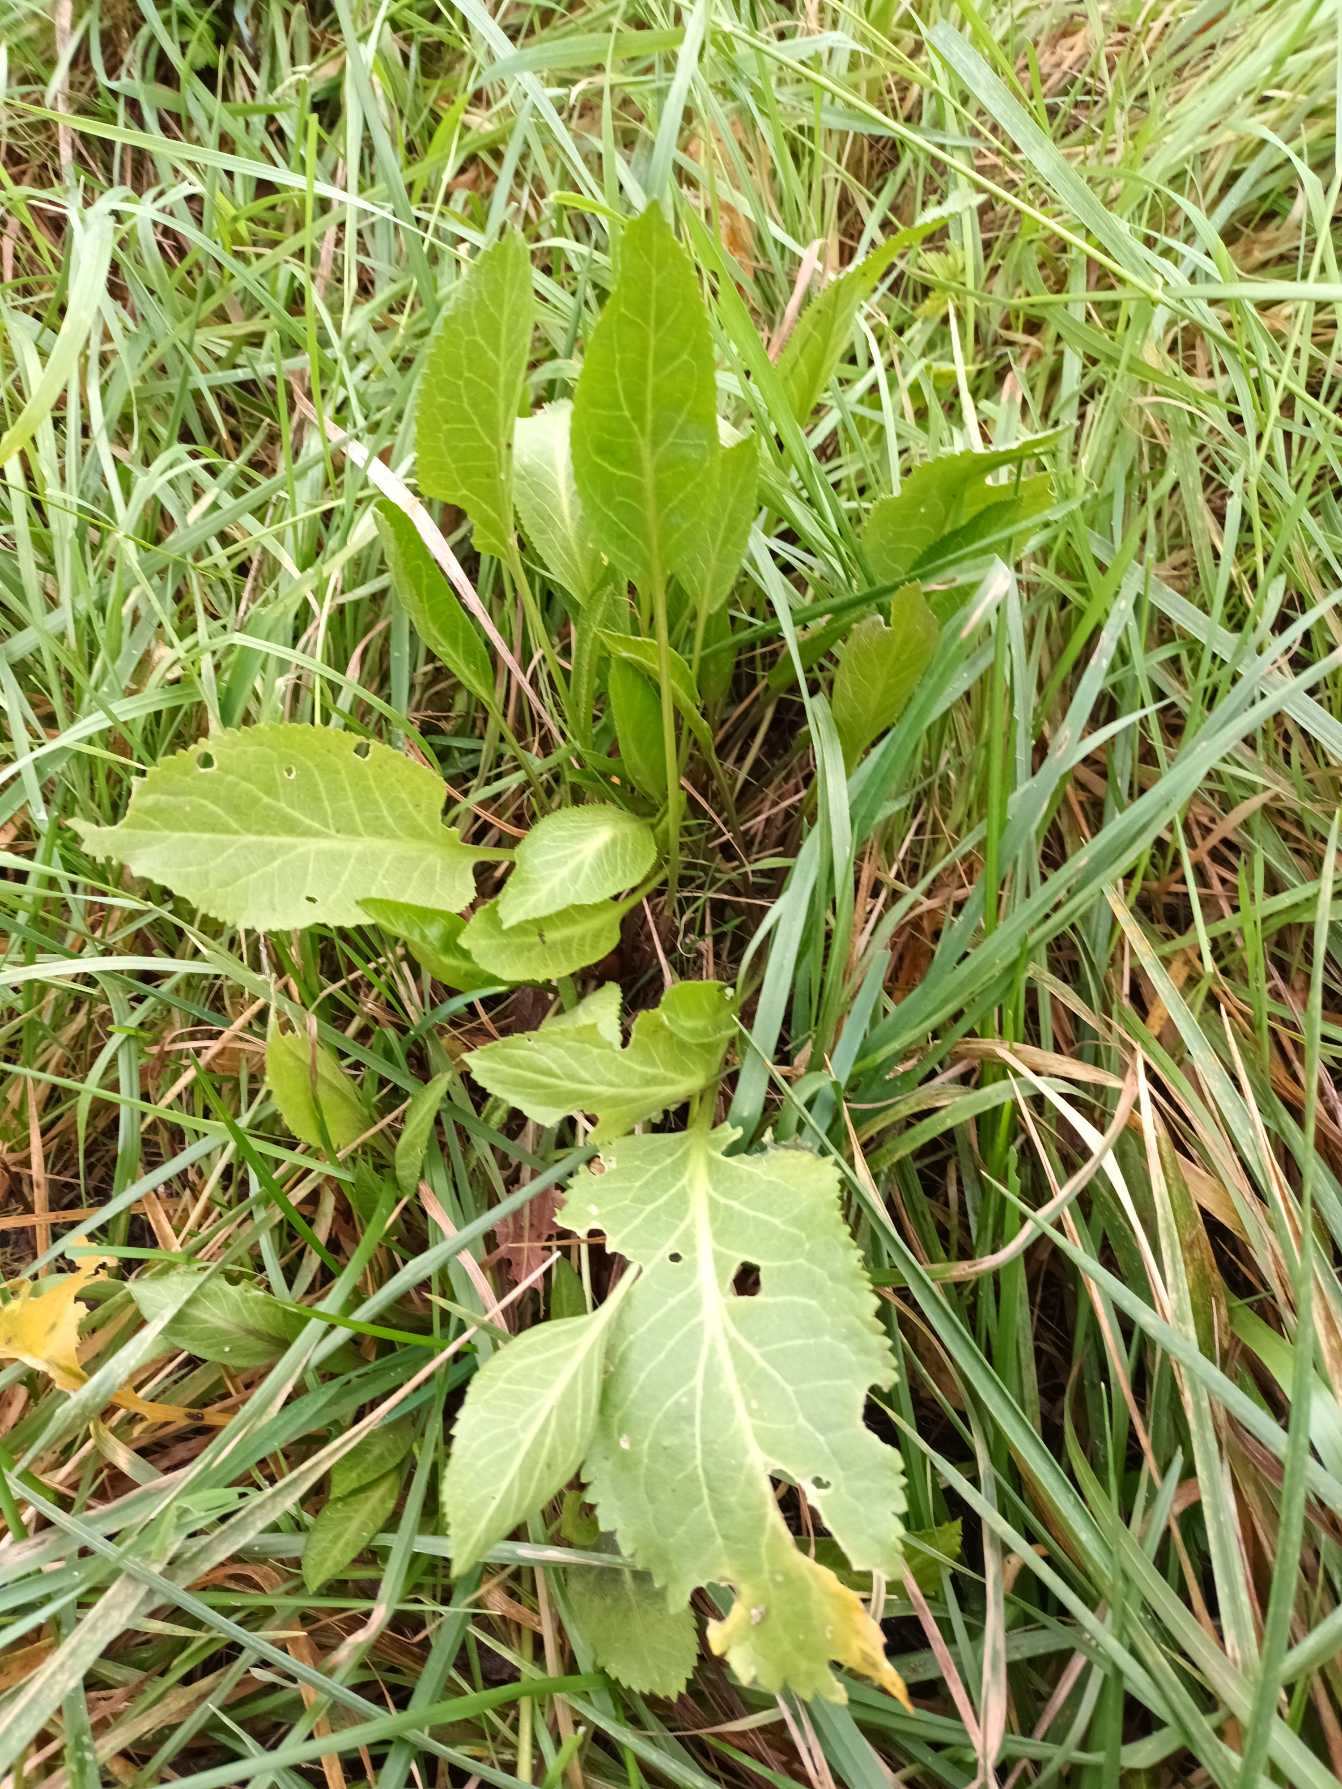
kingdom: Plantae
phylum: Tracheophyta
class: Magnoliopsida
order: Brassicales
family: Brassicaceae
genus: Lepidium
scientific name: Lepidium latifolium
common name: Strand-karse
